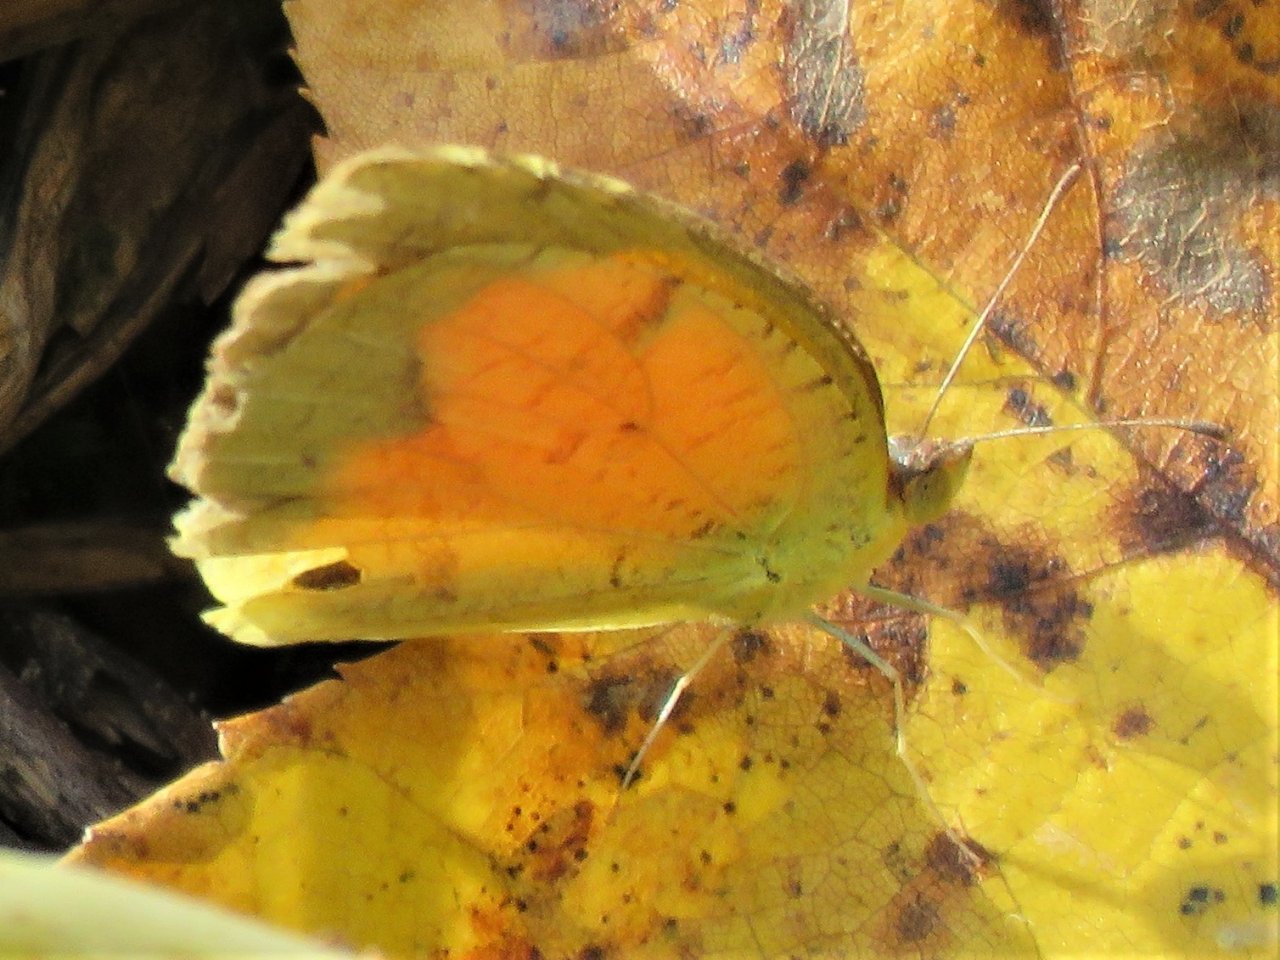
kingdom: Animalia
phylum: Arthropoda
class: Insecta
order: Lepidoptera
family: Pieridae
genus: Abaeis
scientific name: Abaeis nicippe
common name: Sleepy Orange
